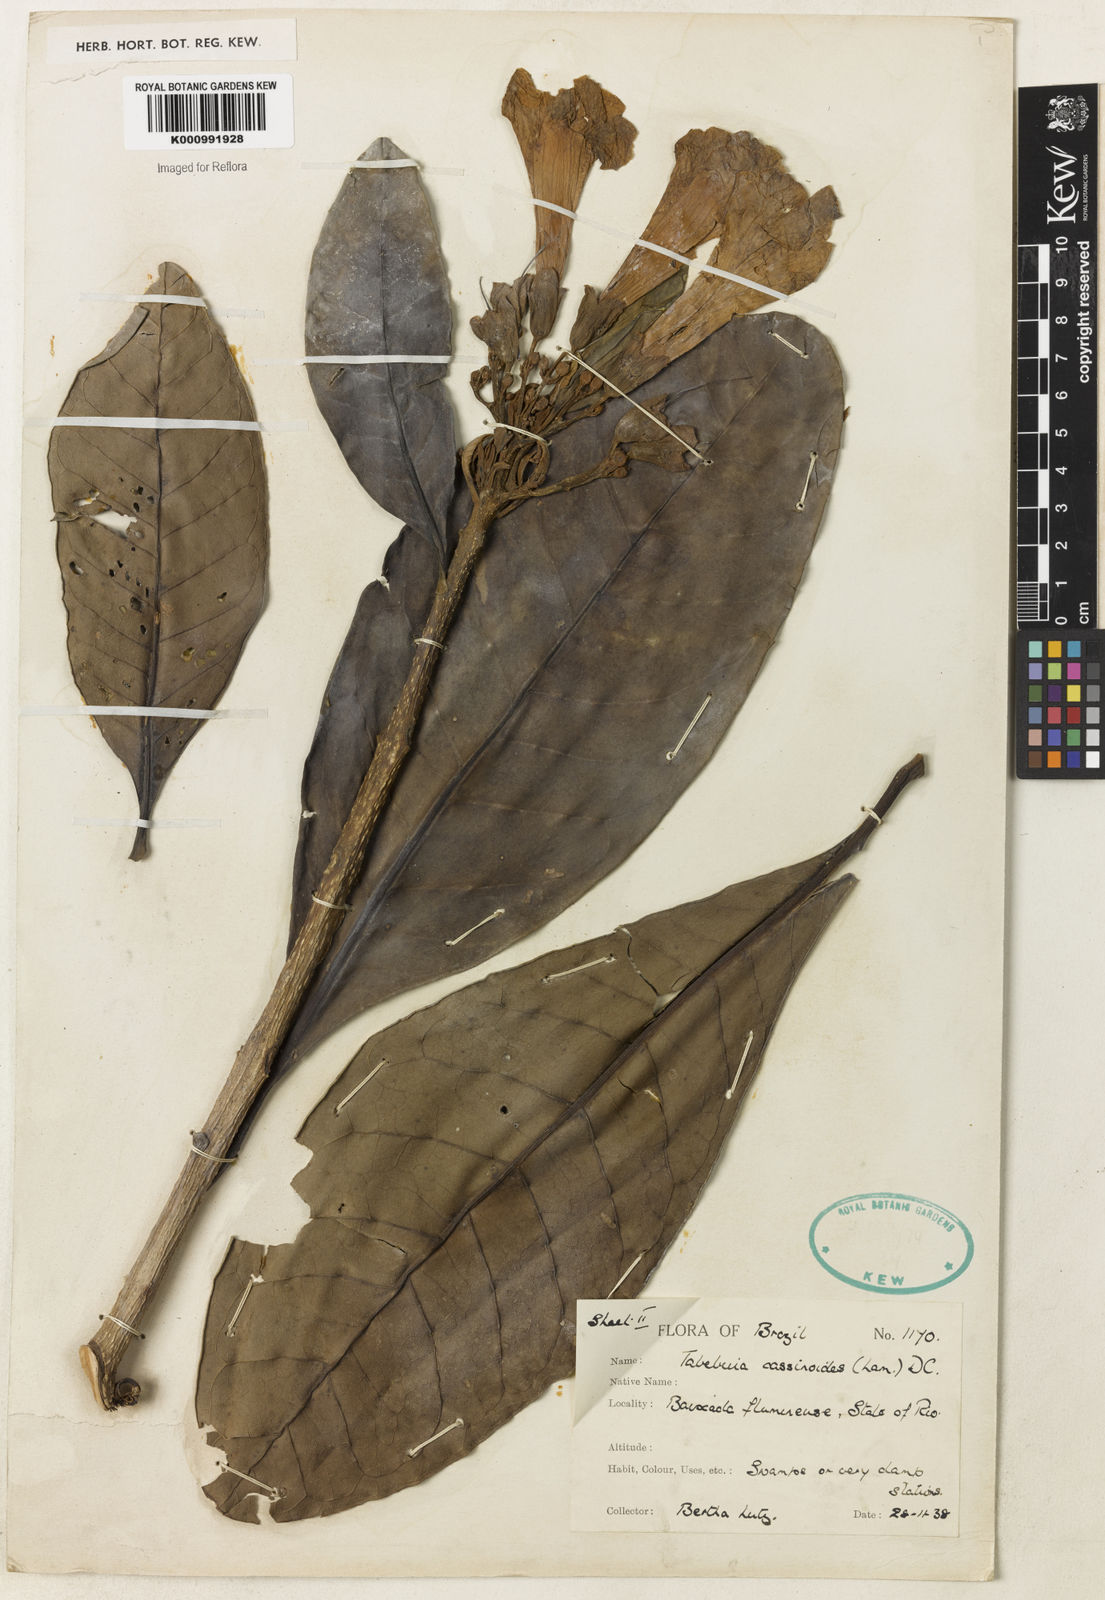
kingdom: Plantae
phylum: Tracheophyta
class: Magnoliopsida
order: Lamiales
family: Bignoniaceae
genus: Tabebuia
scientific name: Tabebuia cassinoides
